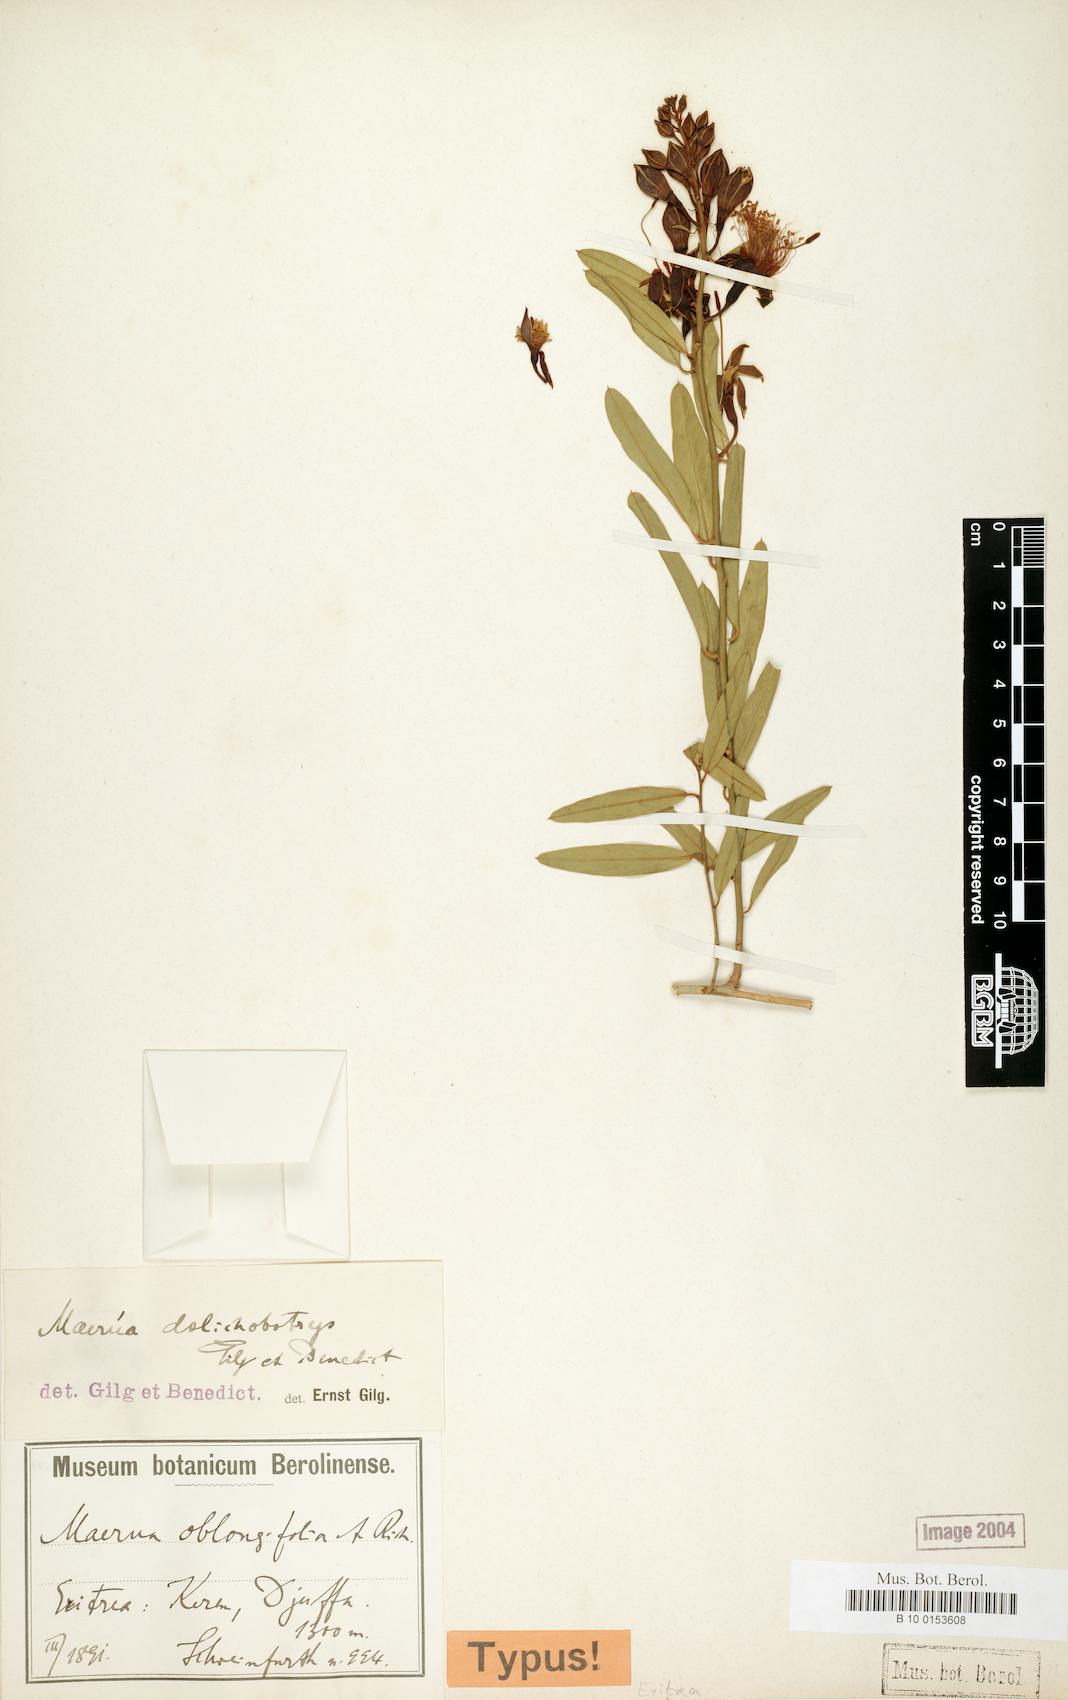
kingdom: Plantae
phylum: Tracheophyta
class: Magnoliopsida
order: Brassicales
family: Capparaceae
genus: Maerua
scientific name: Maerua oblongifolia
